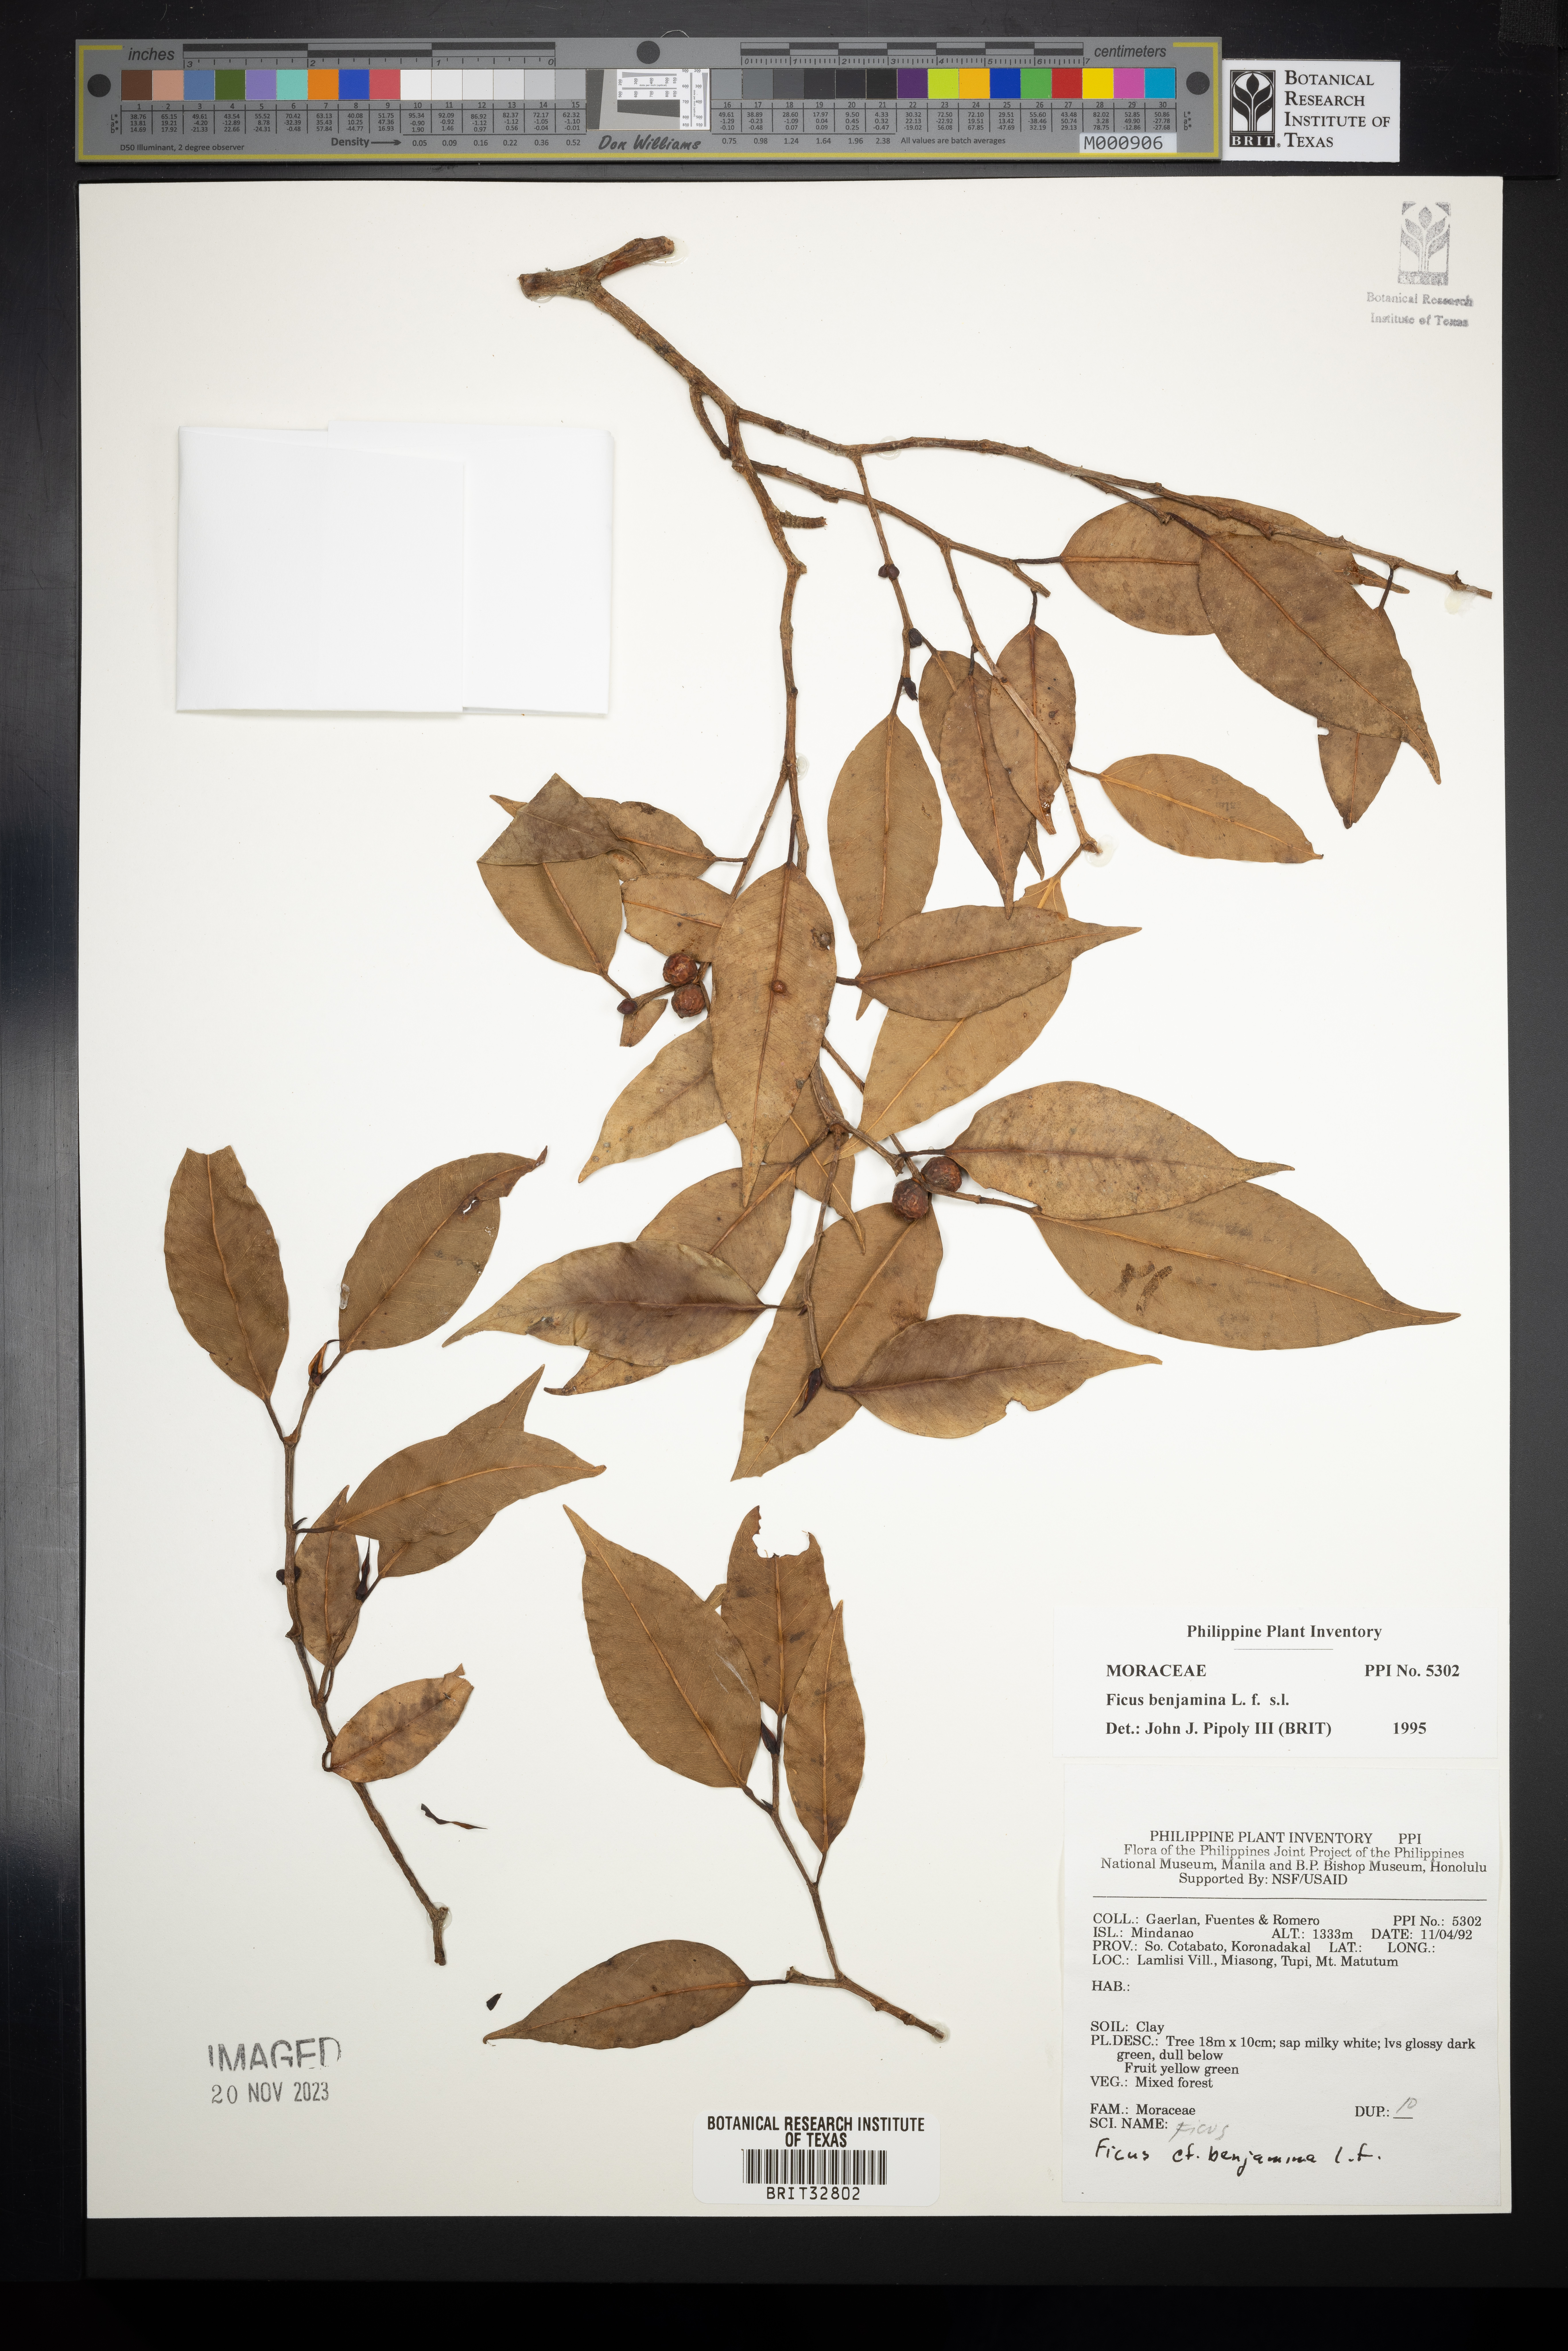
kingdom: Plantae
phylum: Tracheophyta
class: Magnoliopsida
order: Rosales
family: Moraceae
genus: Ficus
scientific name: Ficus benjamina
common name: Weeping fig
